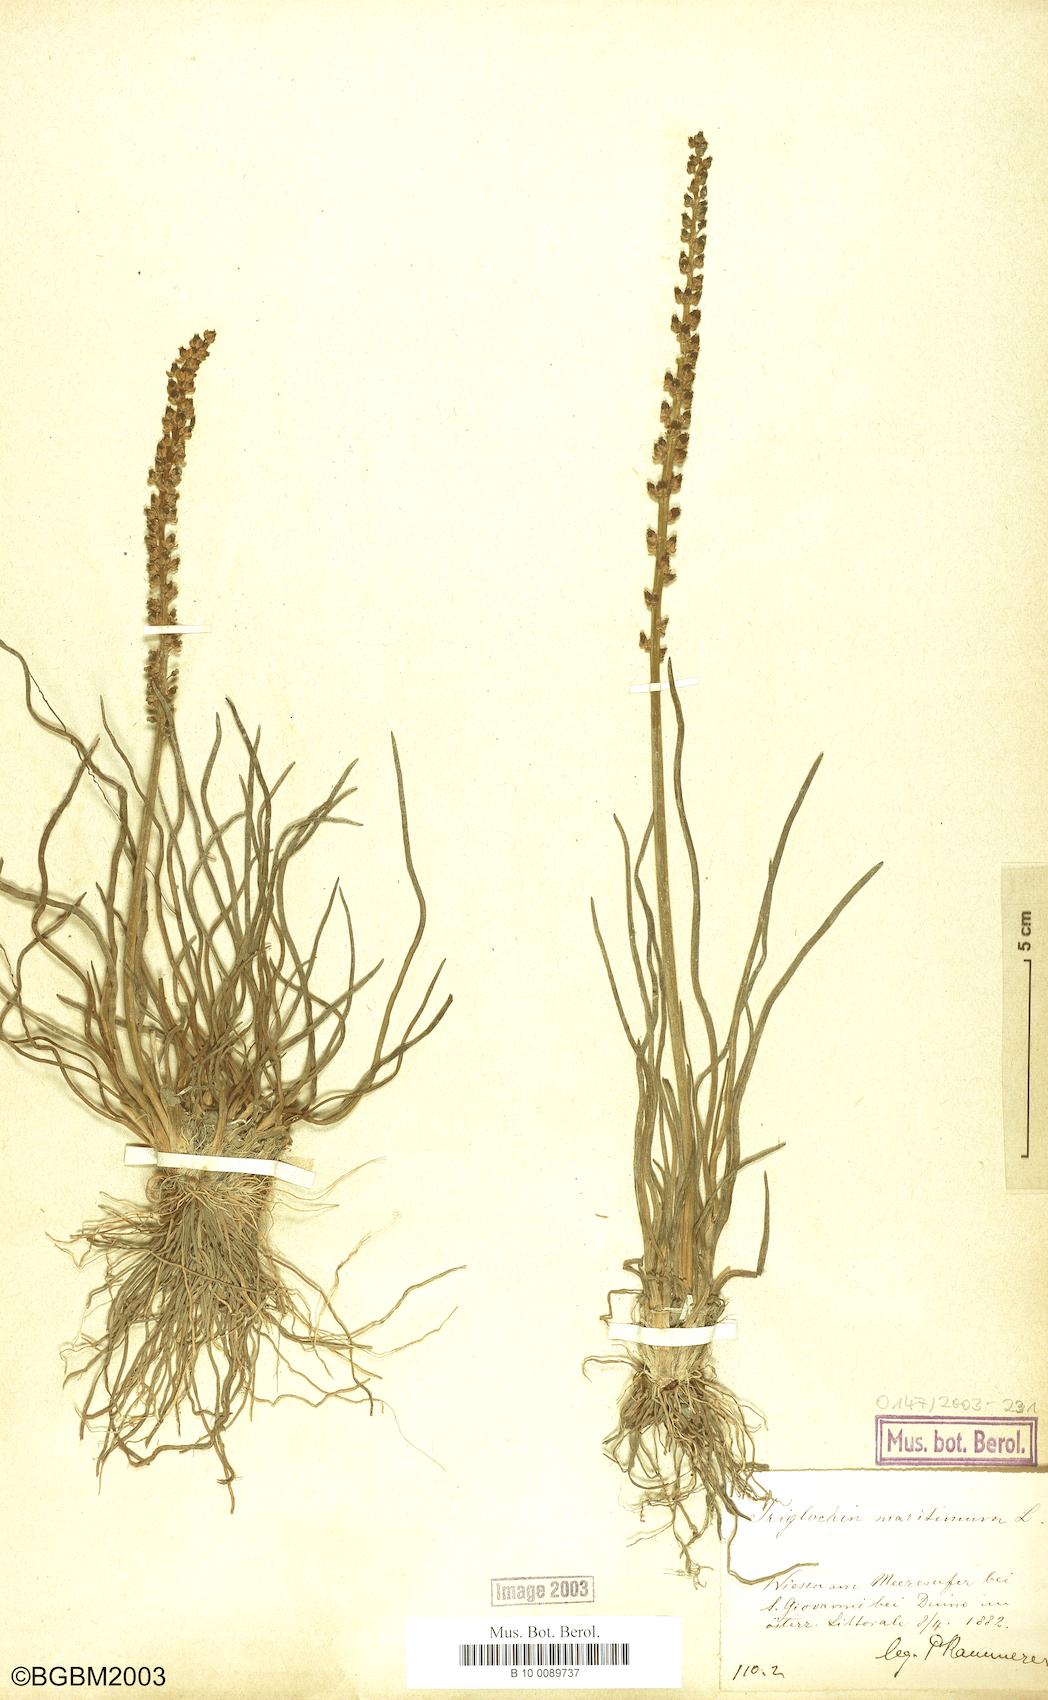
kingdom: Plantae
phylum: Tracheophyta
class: Liliopsida
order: Alismatales
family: Juncaginaceae
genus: Triglochin
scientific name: Triglochin maritima
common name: Sea arrowgrass
